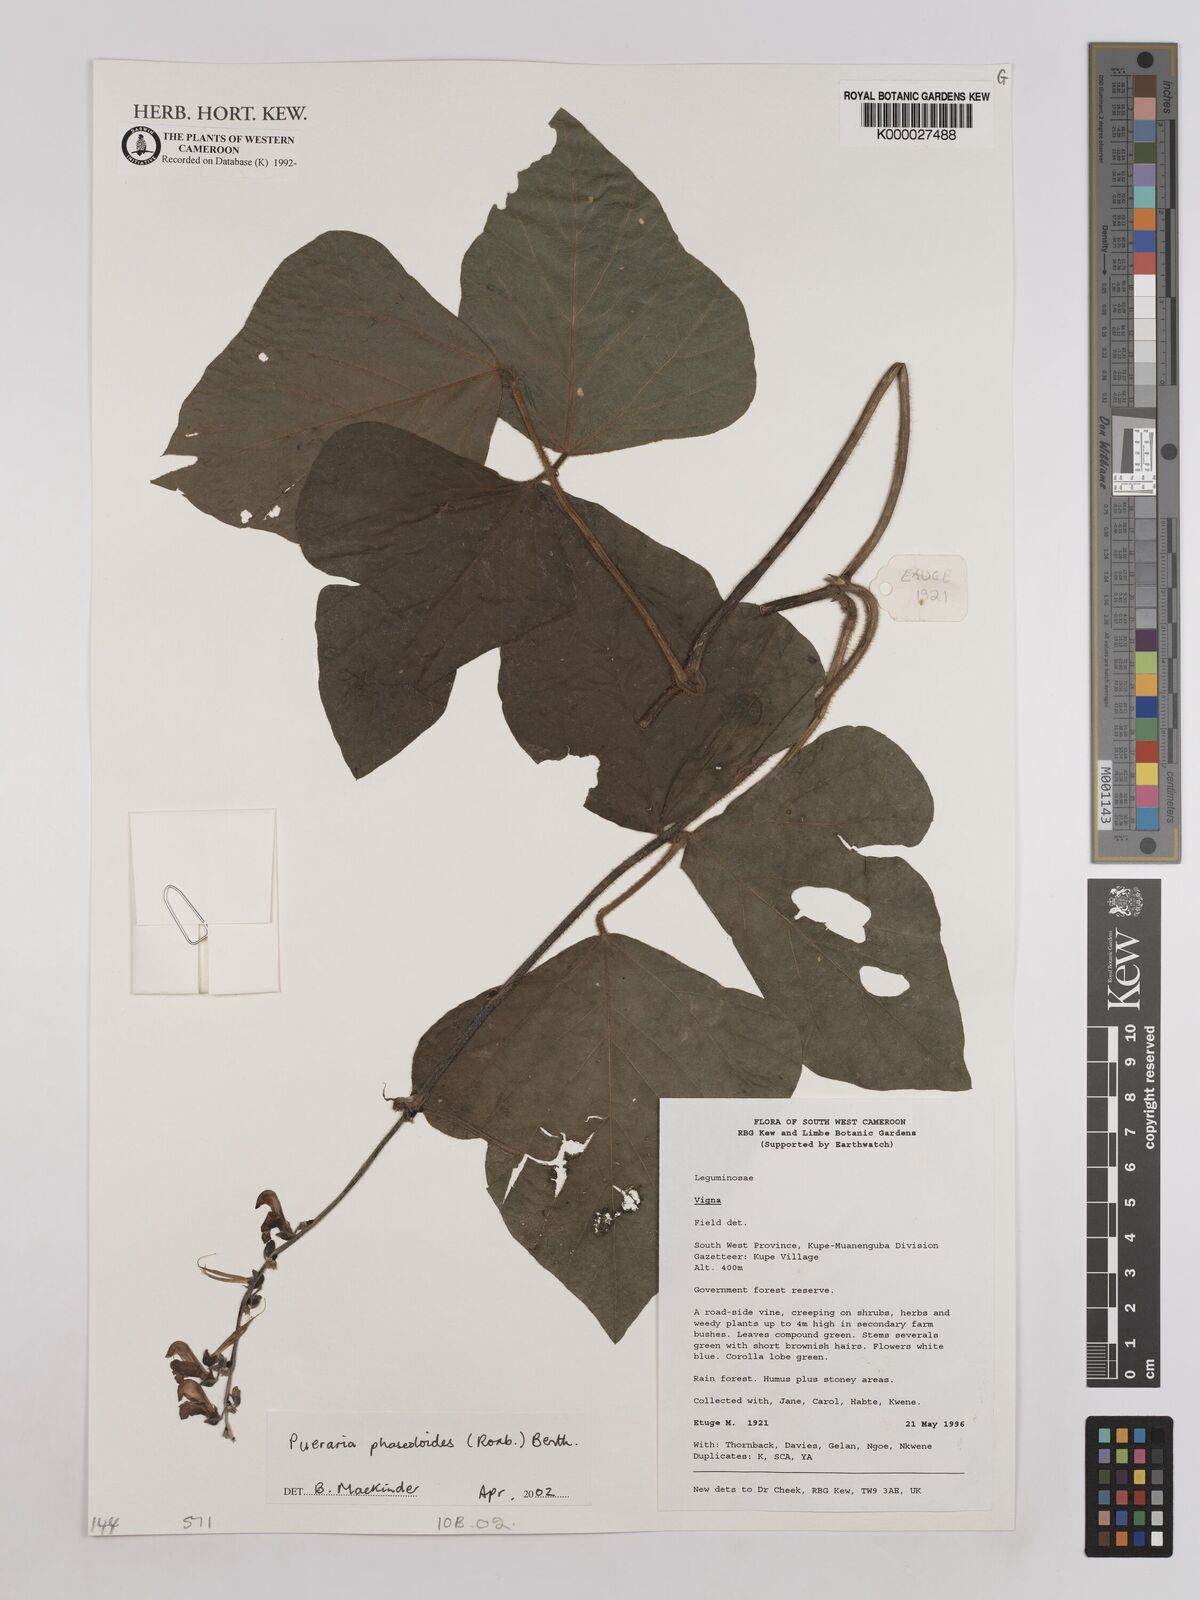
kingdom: Plantae
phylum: Tracheophyta
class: Magnoliopsida
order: Fabales
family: Fabaceae
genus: Neustanthus
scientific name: Neustanthus phaseoloides
